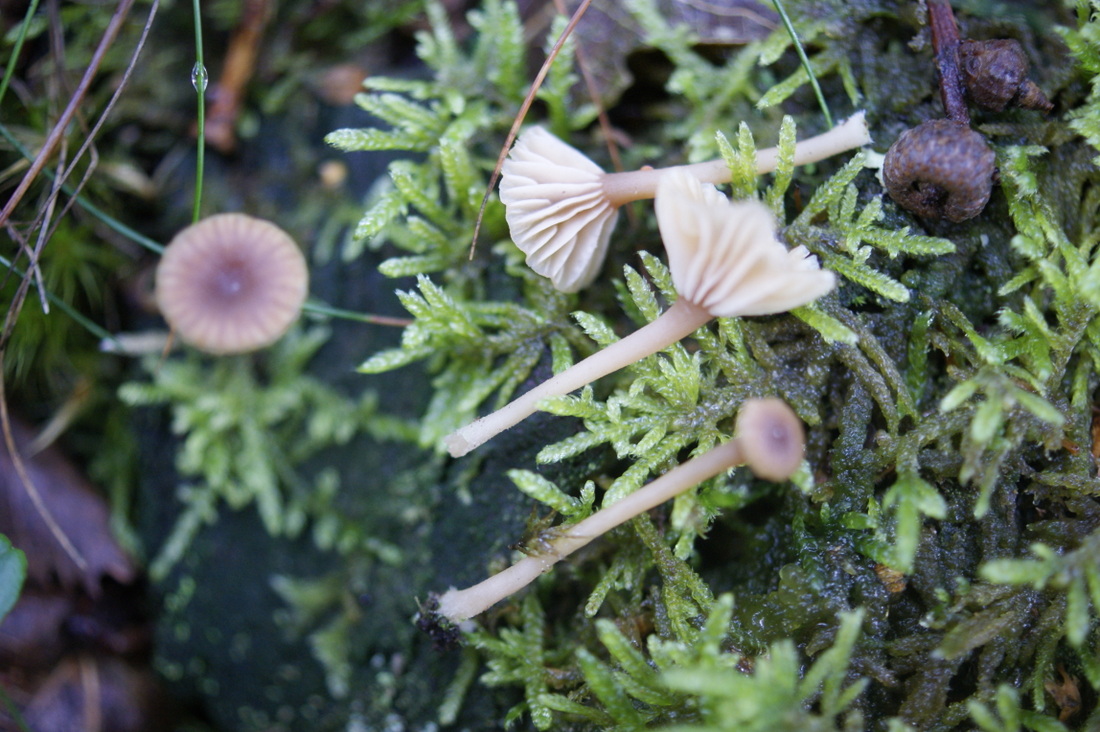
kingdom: Fungi
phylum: Basidiomycota
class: Agaricomycetes
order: Agaricales
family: Hygrophoraceae
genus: Lichenomphalia
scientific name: Lichenomphalia umbellifera
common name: tørve-lavhat
